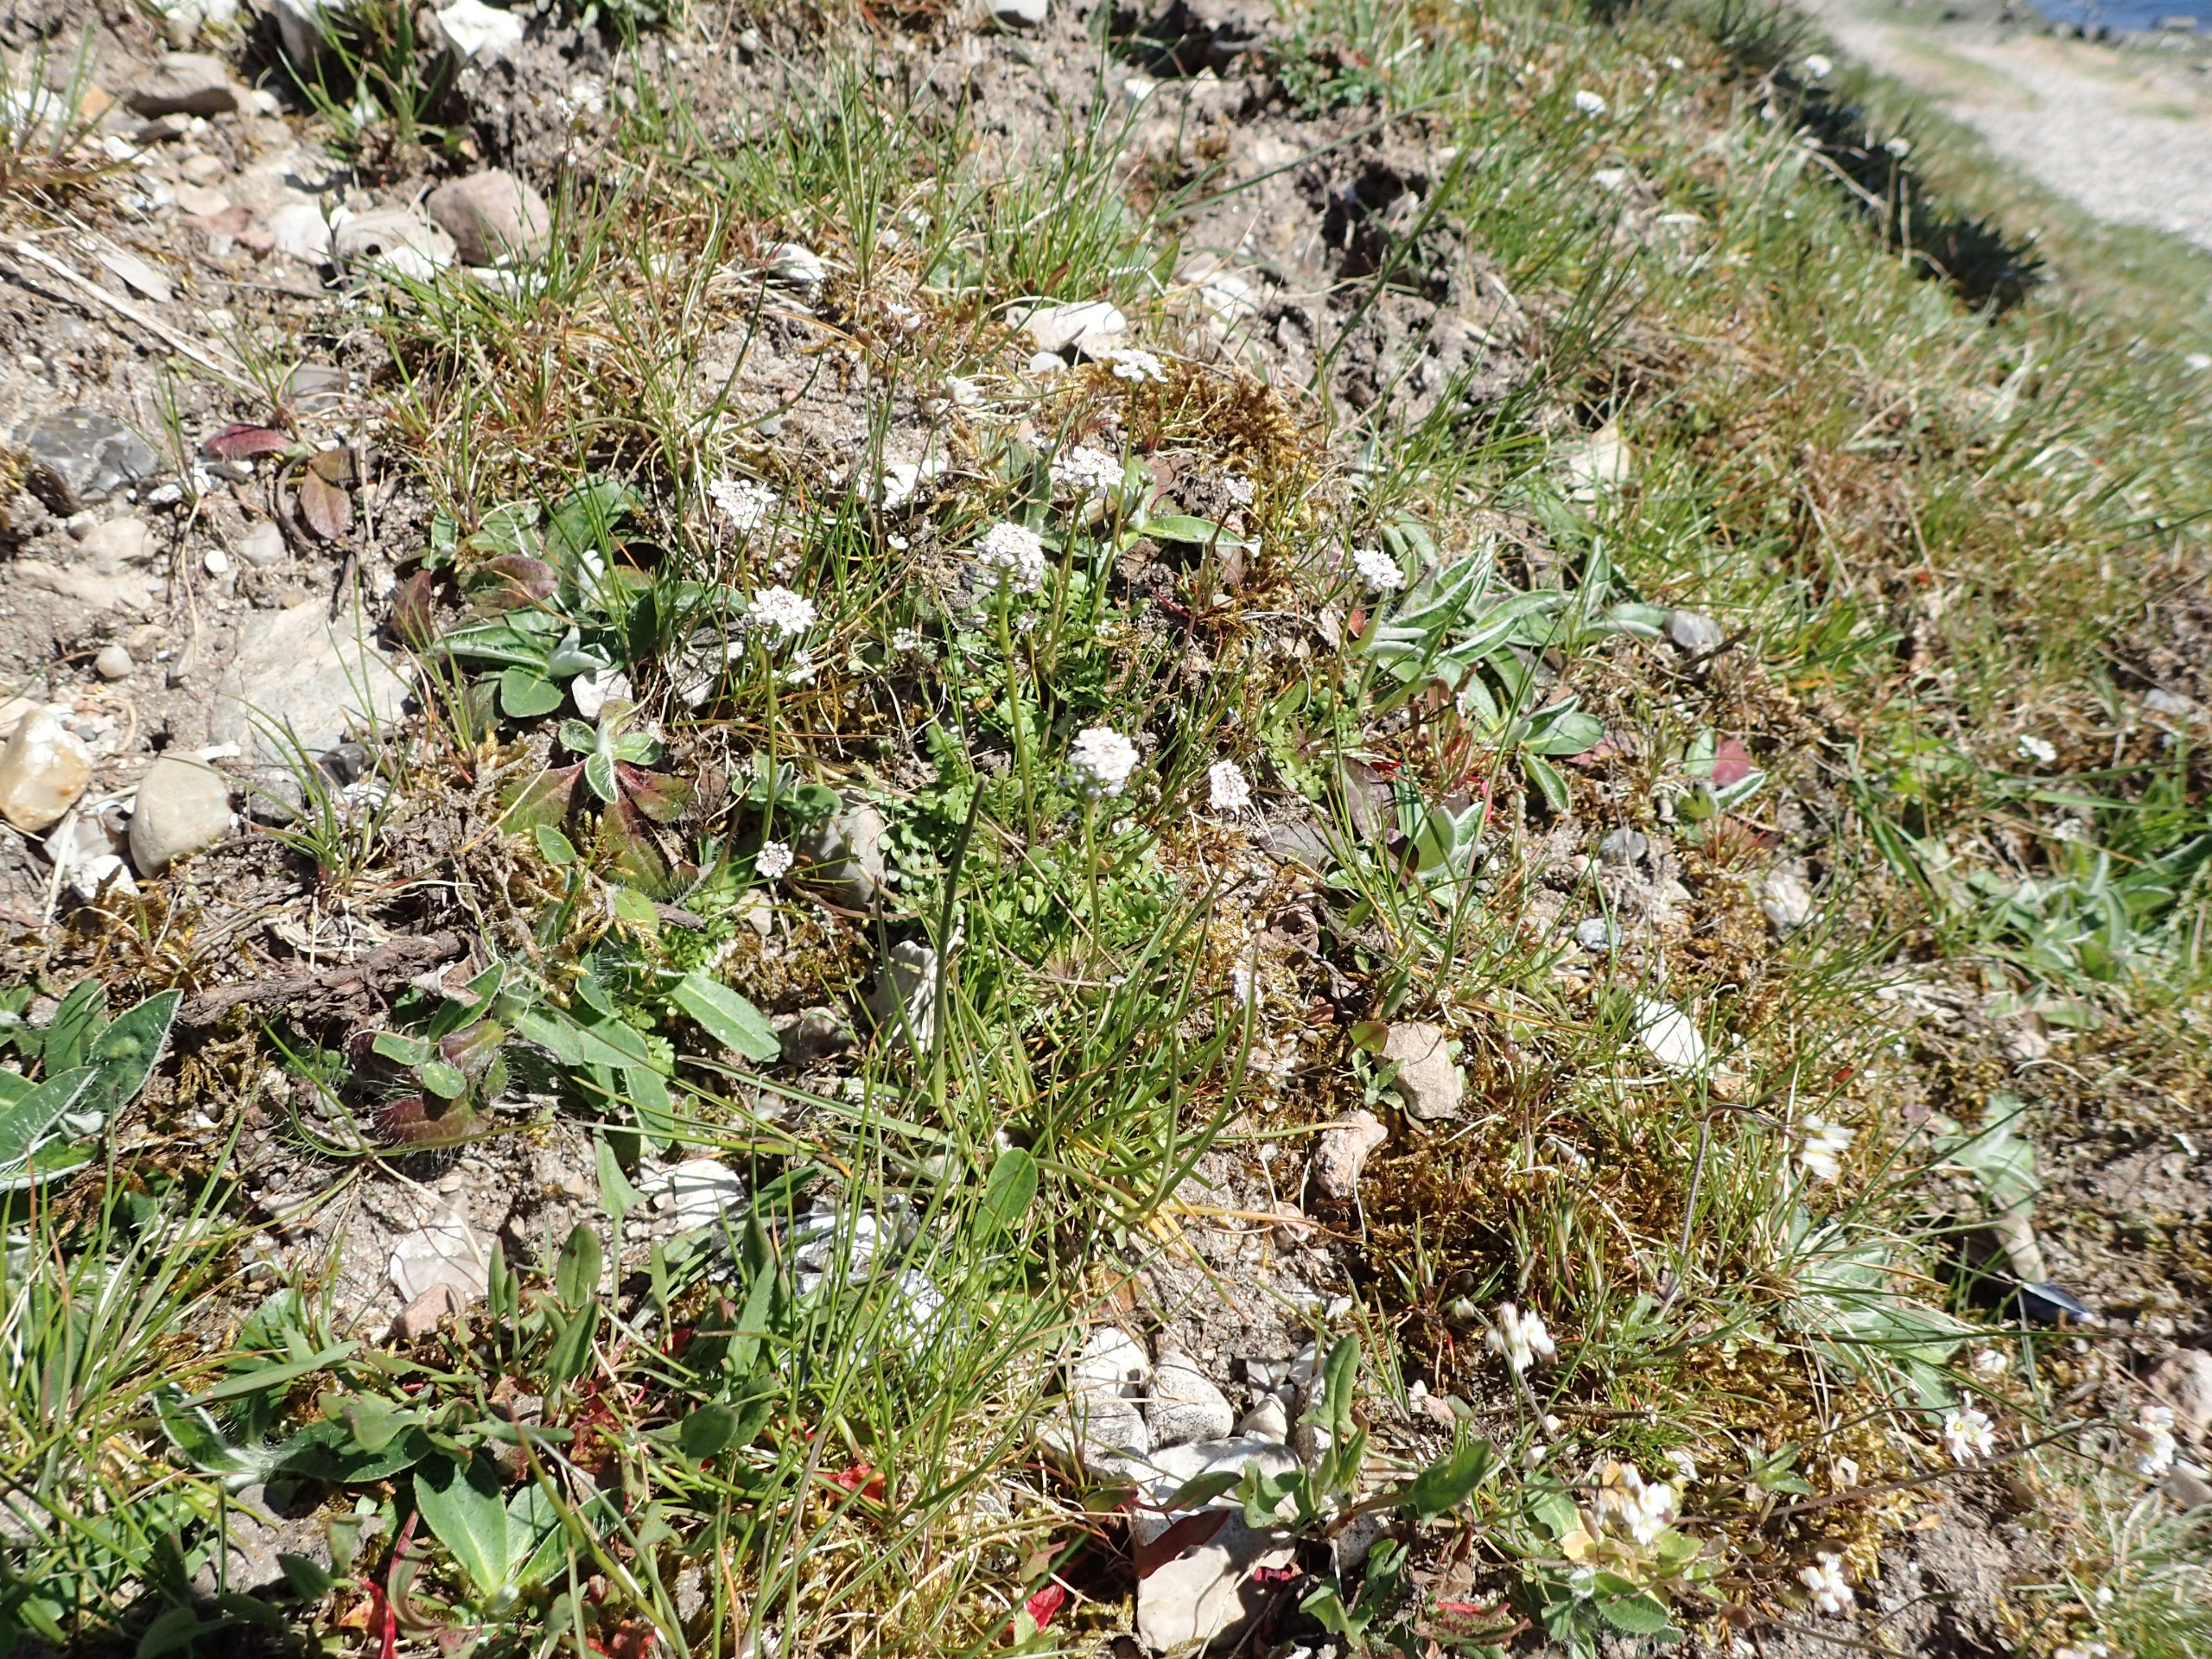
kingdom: Plantae
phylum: Tracheophyta
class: Magnoliopsida
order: Brassicales
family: Brassicaceae
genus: Teesdalia
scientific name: Teesdalia nudicaulis
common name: Flipkrave
